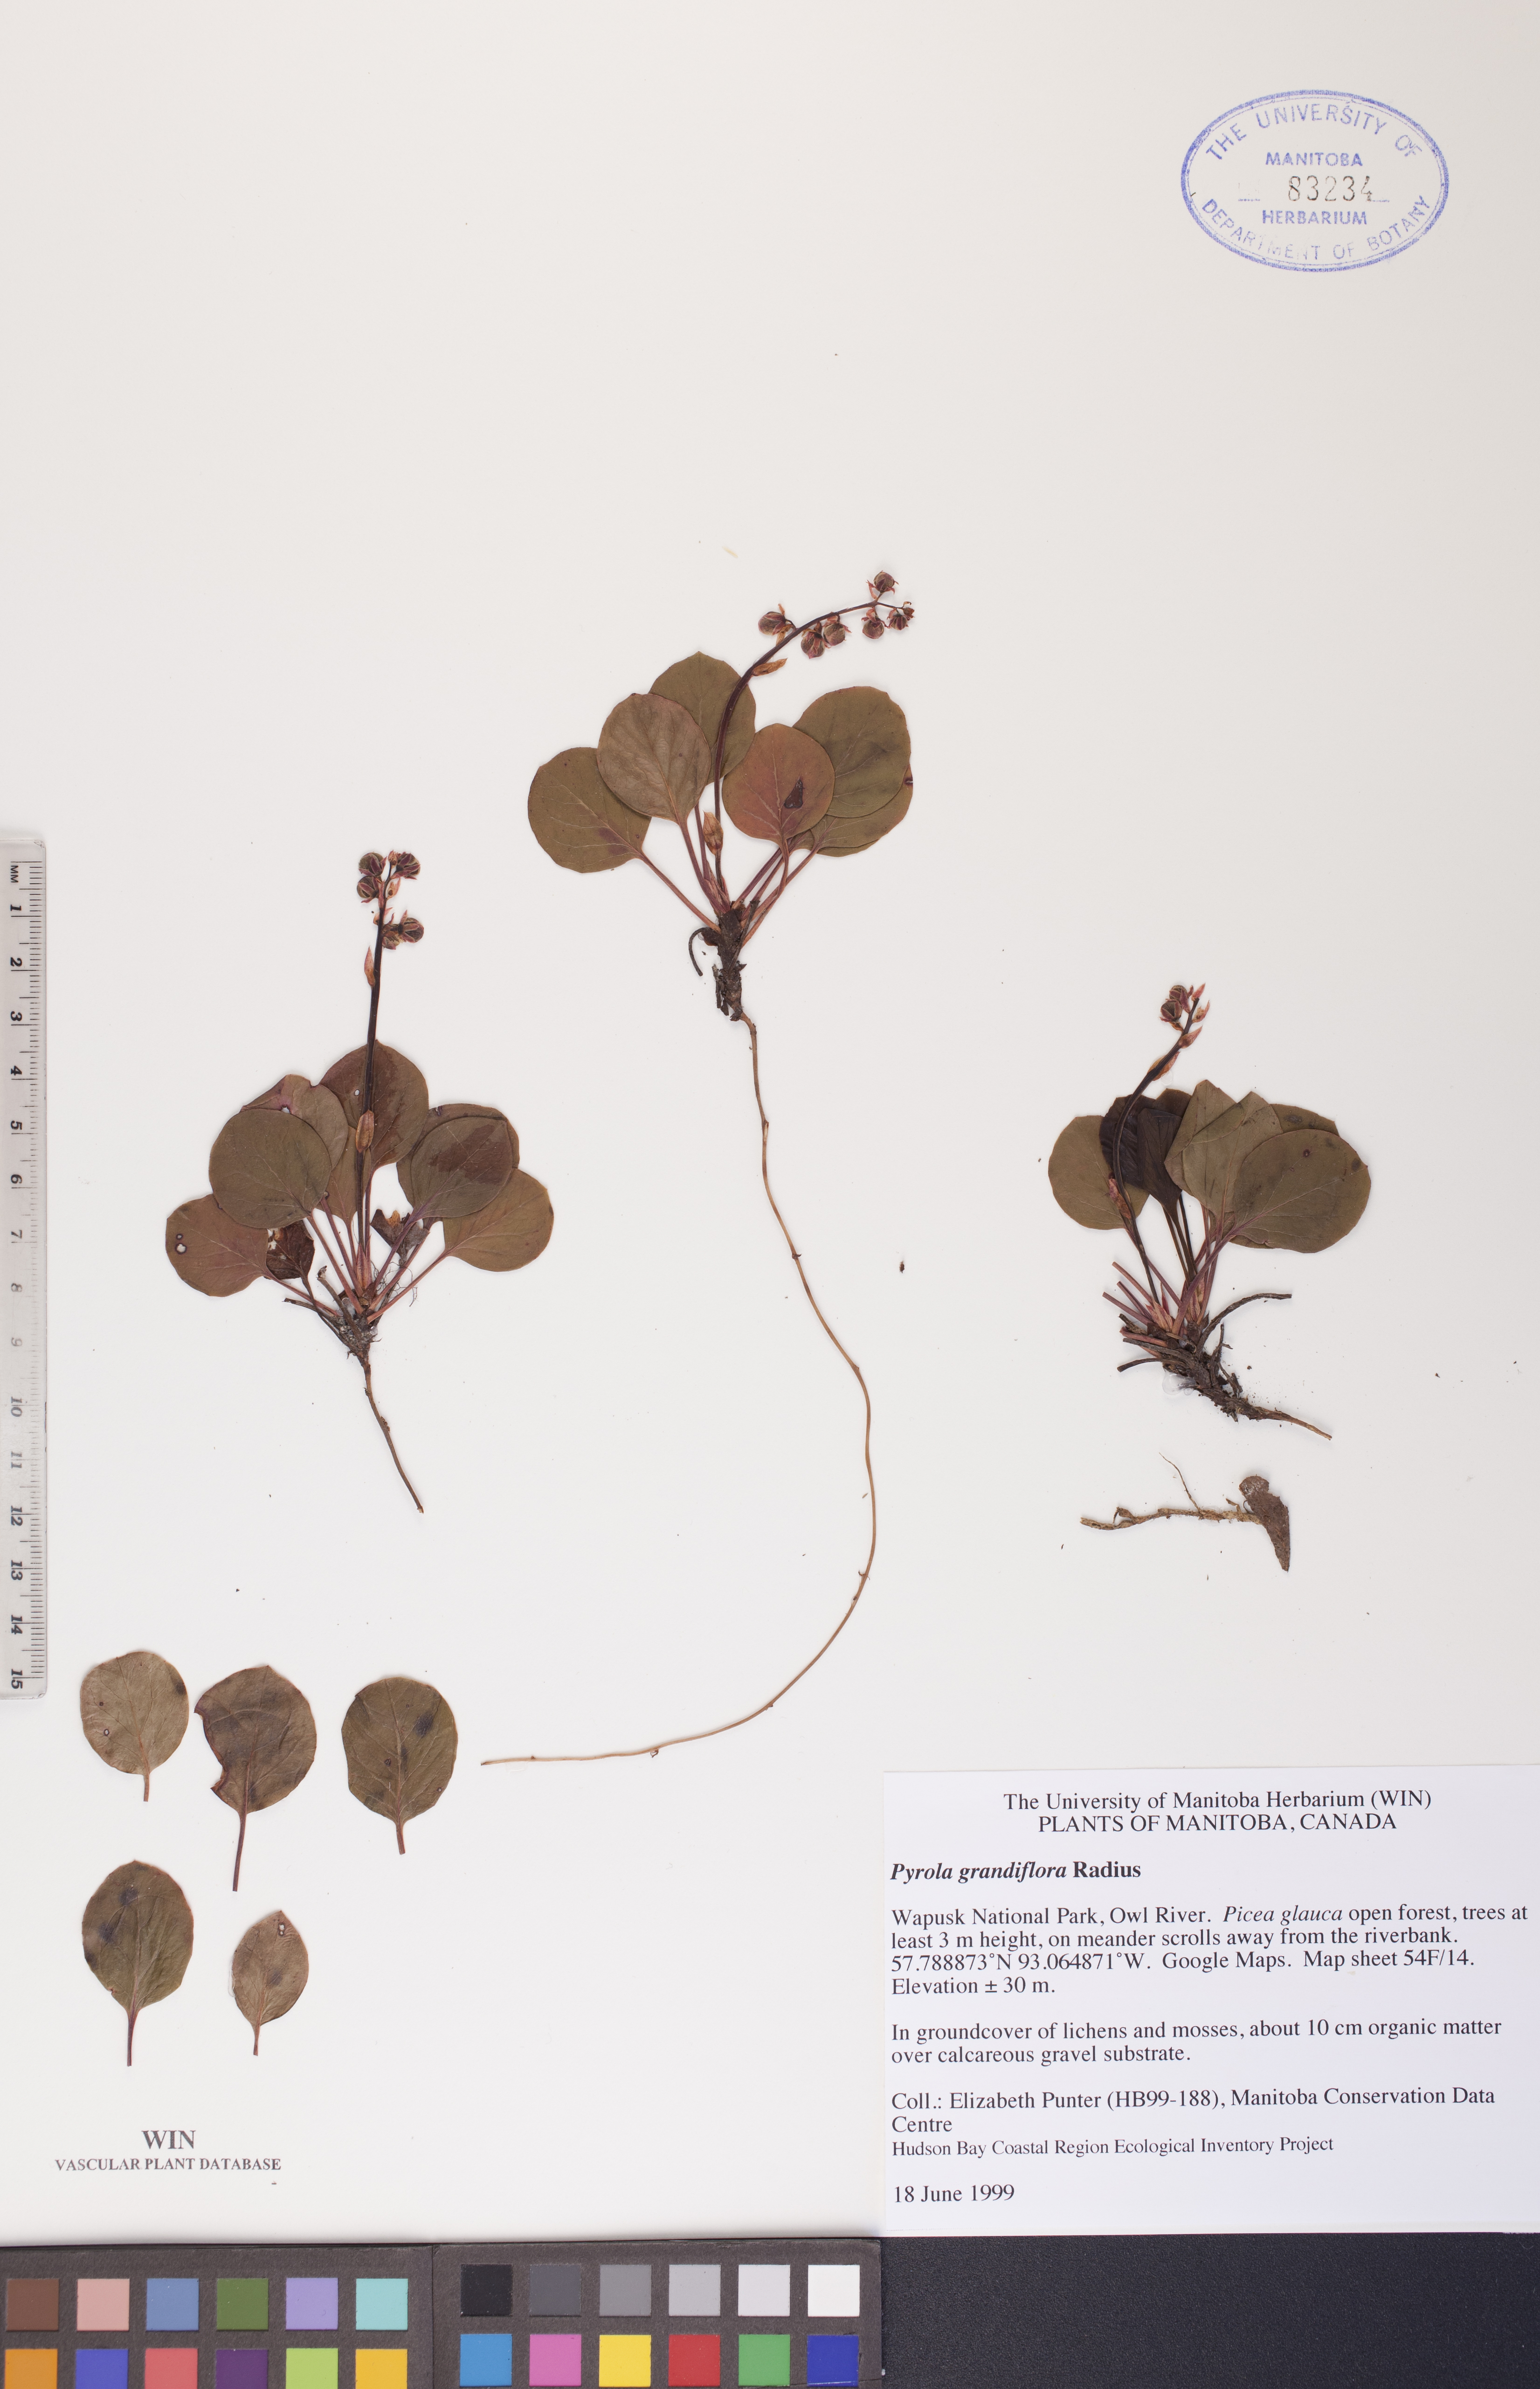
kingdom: Plantae
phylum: Tracheophyta
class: Magnoliopsida
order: Ericales
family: Ericaceae
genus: Pyrola
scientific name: Pyrola grandiflora
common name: Arctic pyrola
